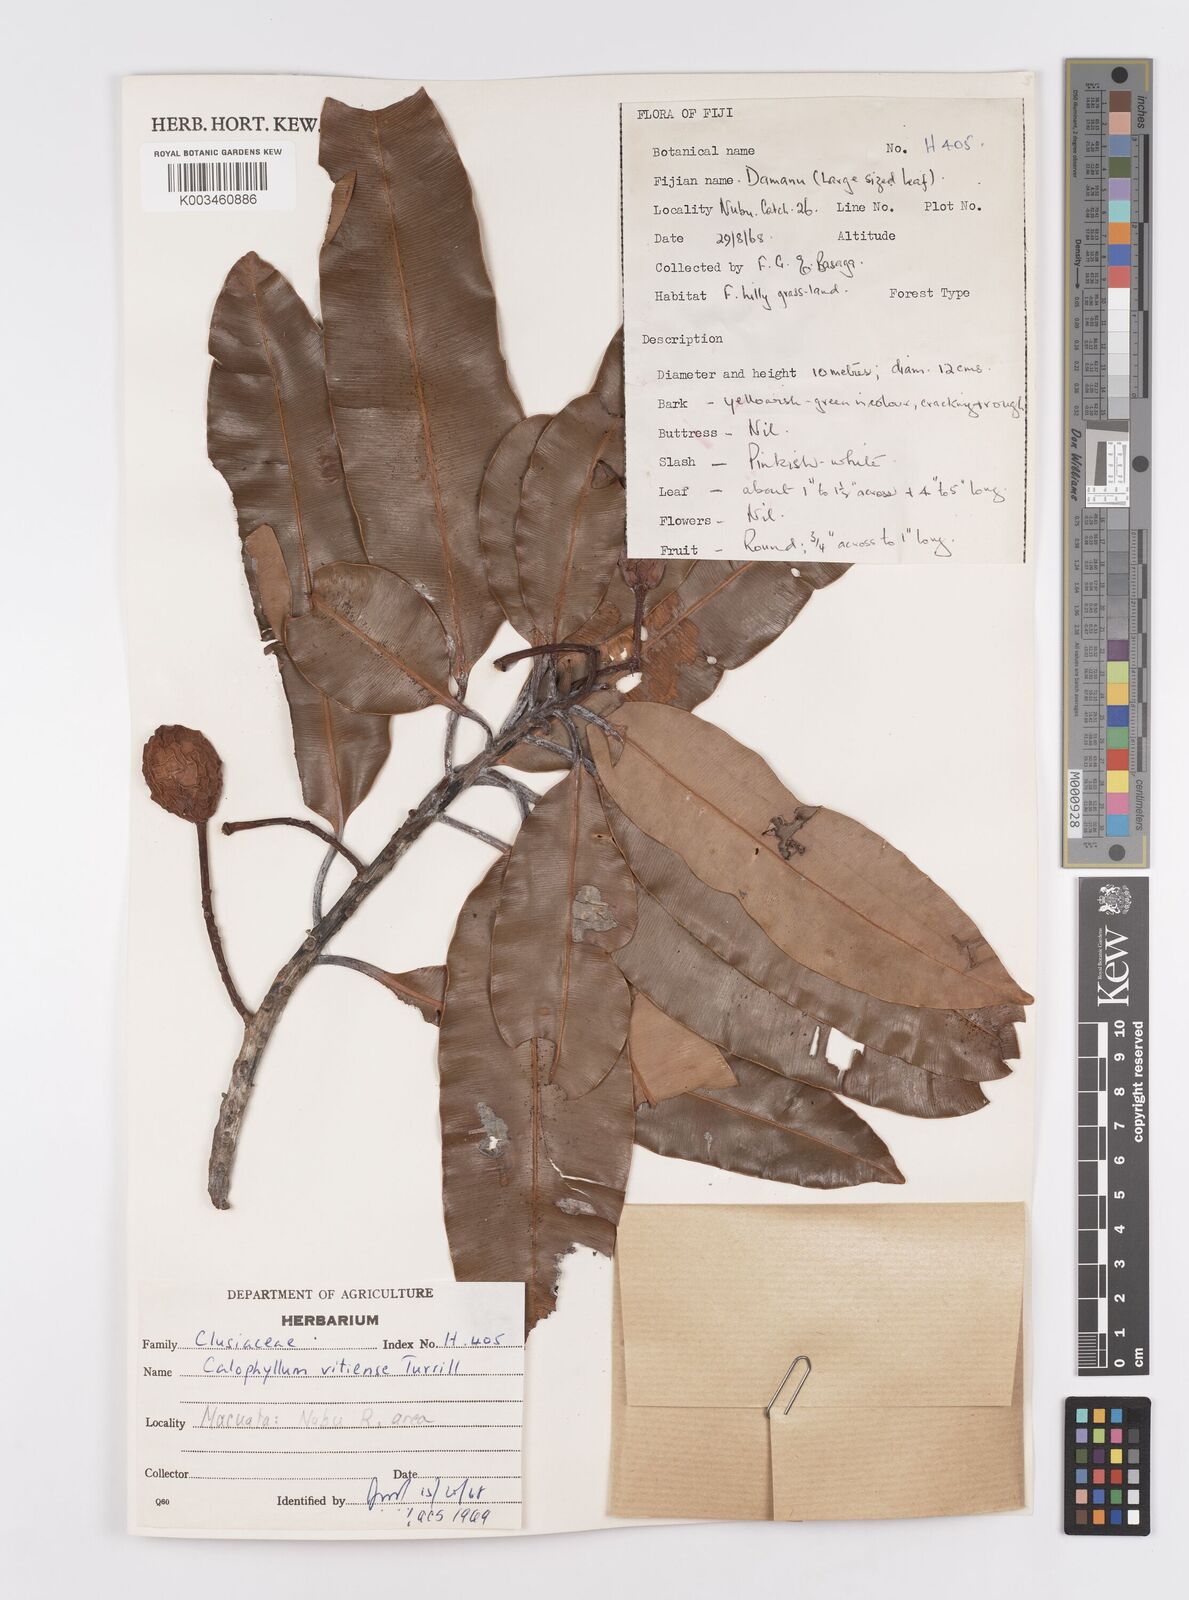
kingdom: Plantae
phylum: Tracheophyta
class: Magnoliopsida
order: Malpighiales
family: Calophyllaceae
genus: Calophyllum
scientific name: Calophyllum vitiense
